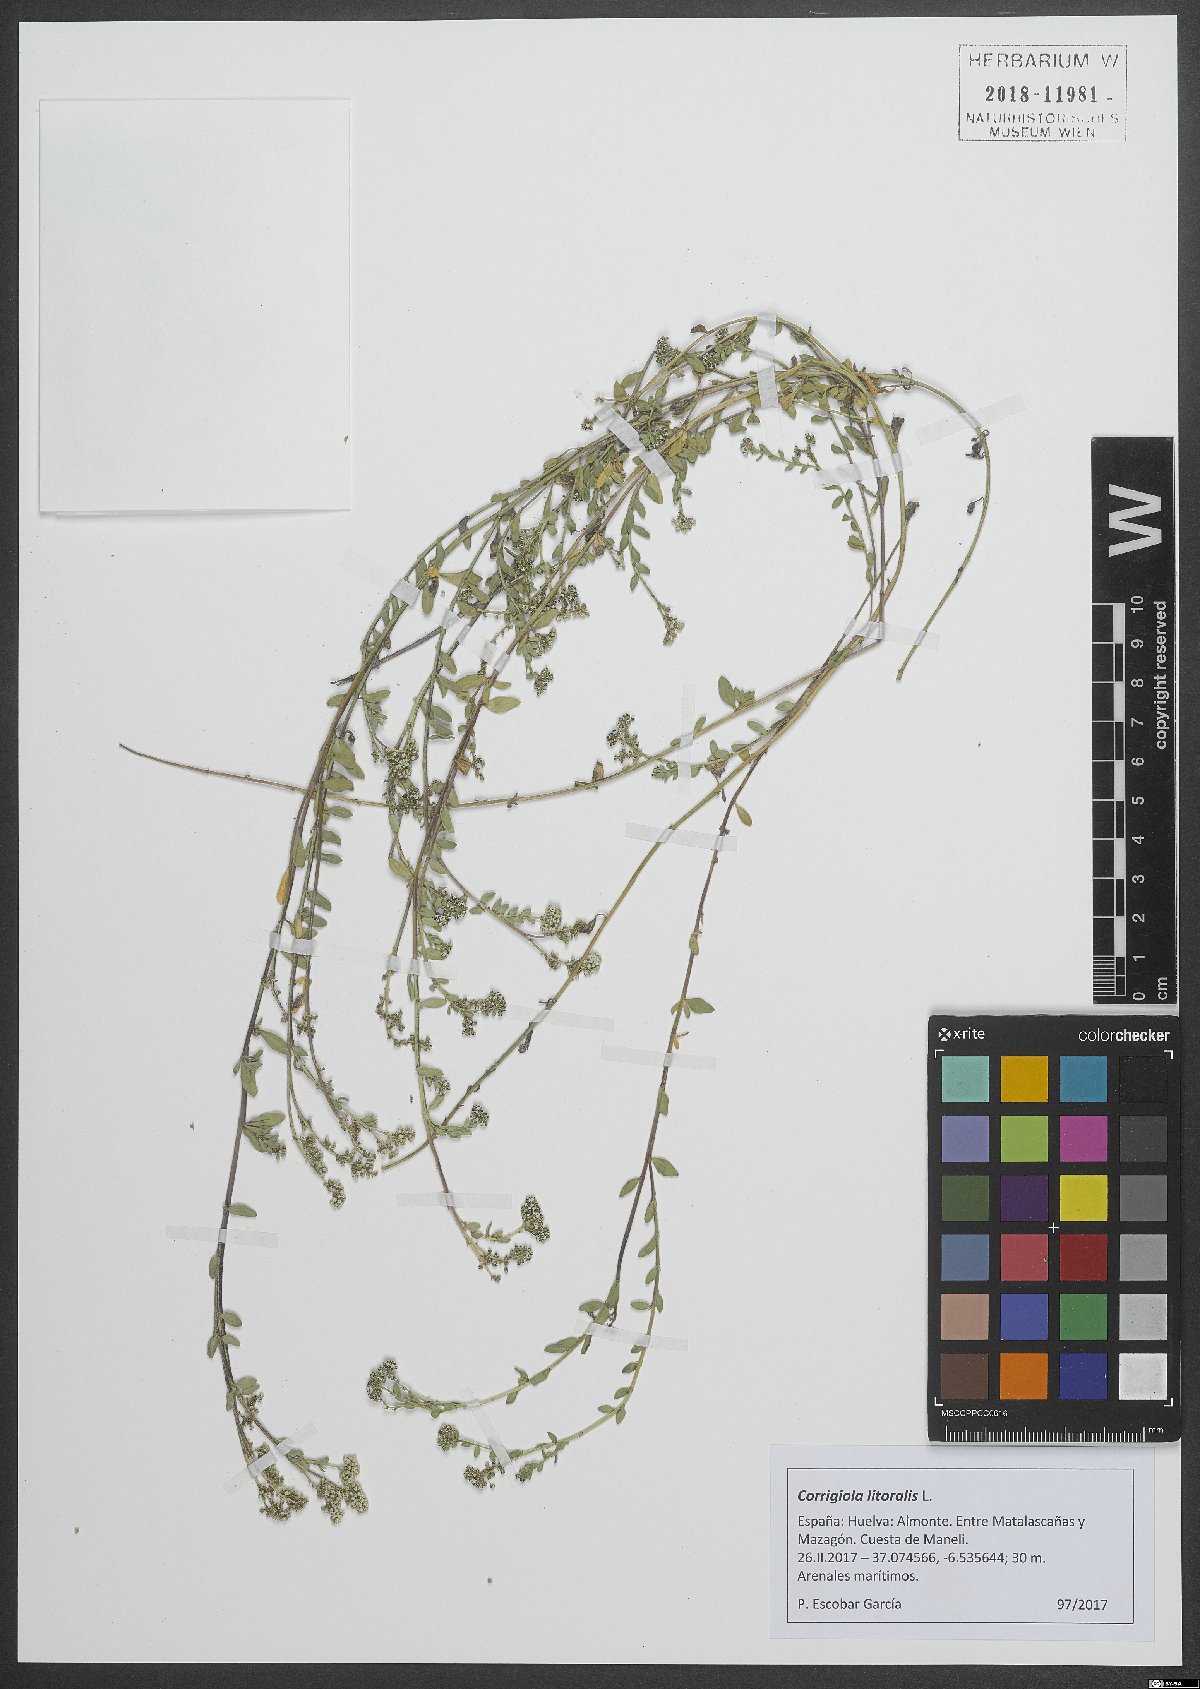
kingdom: Plantae
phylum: Tracheophyta
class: Magnoliopsida
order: Caryophyllales
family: Caryophyllaceae
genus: Corrigiola
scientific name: Corrigiola litoralis
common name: Strapwort
